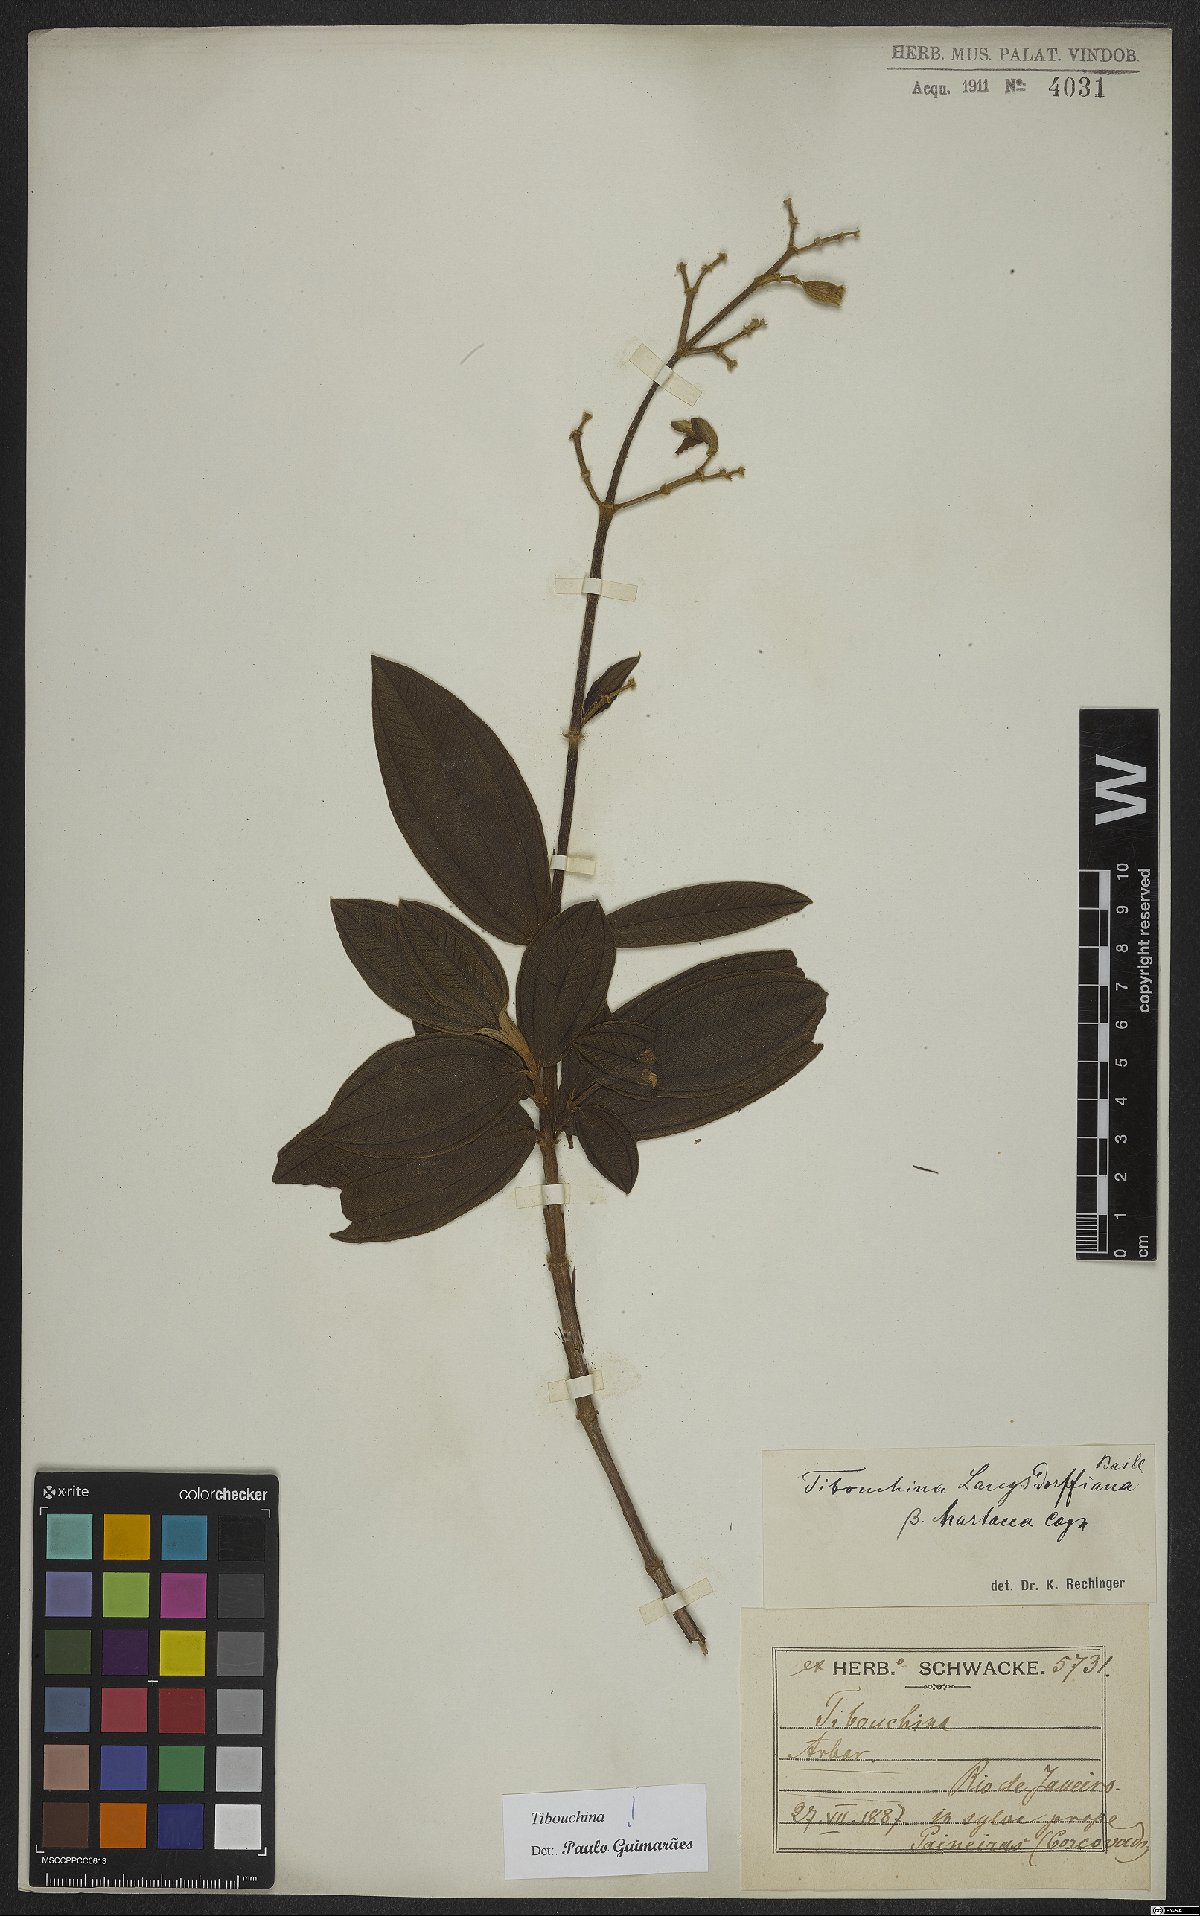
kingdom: Plantae
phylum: Tracheophyta
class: Magnoliopsida
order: Myrtales
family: Melastomataceae
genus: Pleroma
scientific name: Pleroma langsdorfianum
